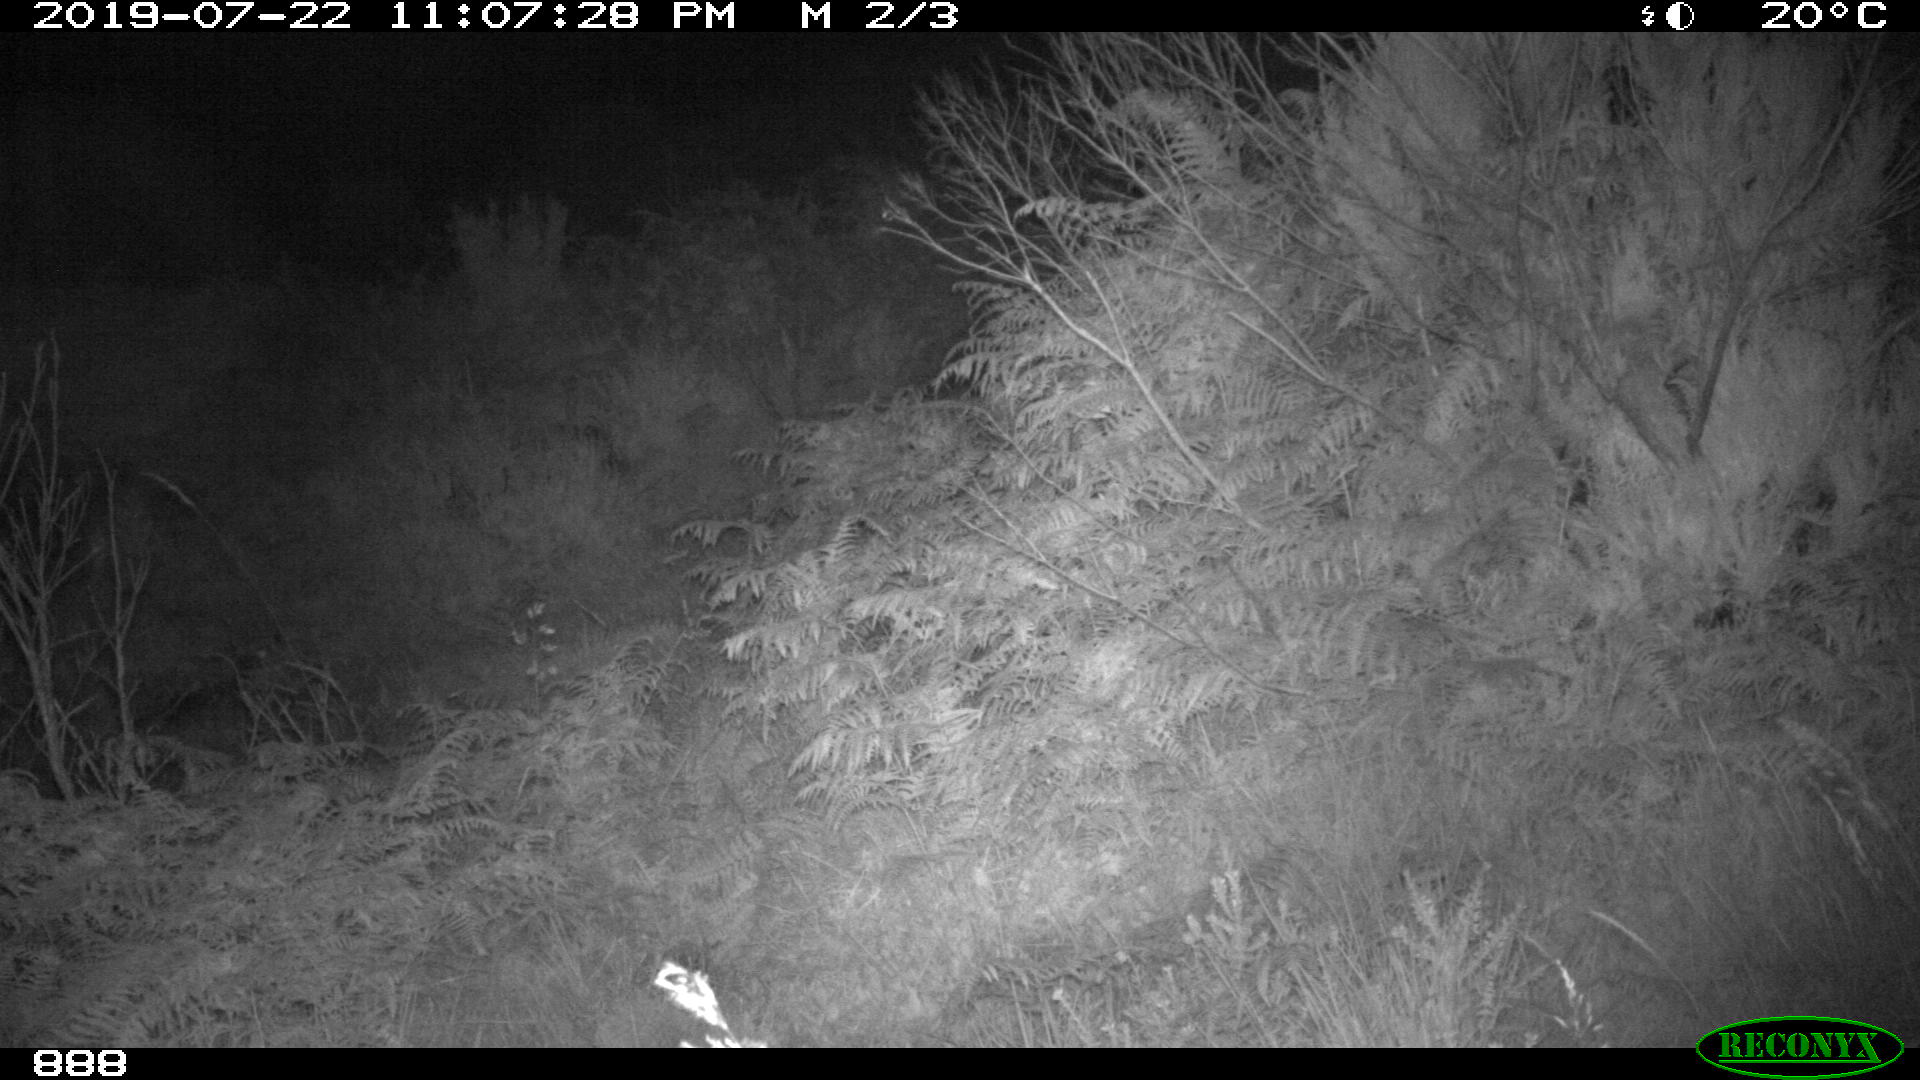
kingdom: Animalia
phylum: Chordata
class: Mammalia
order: Perissodactyla
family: Equidae
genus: Equus
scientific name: Equus caballus
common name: Horse
